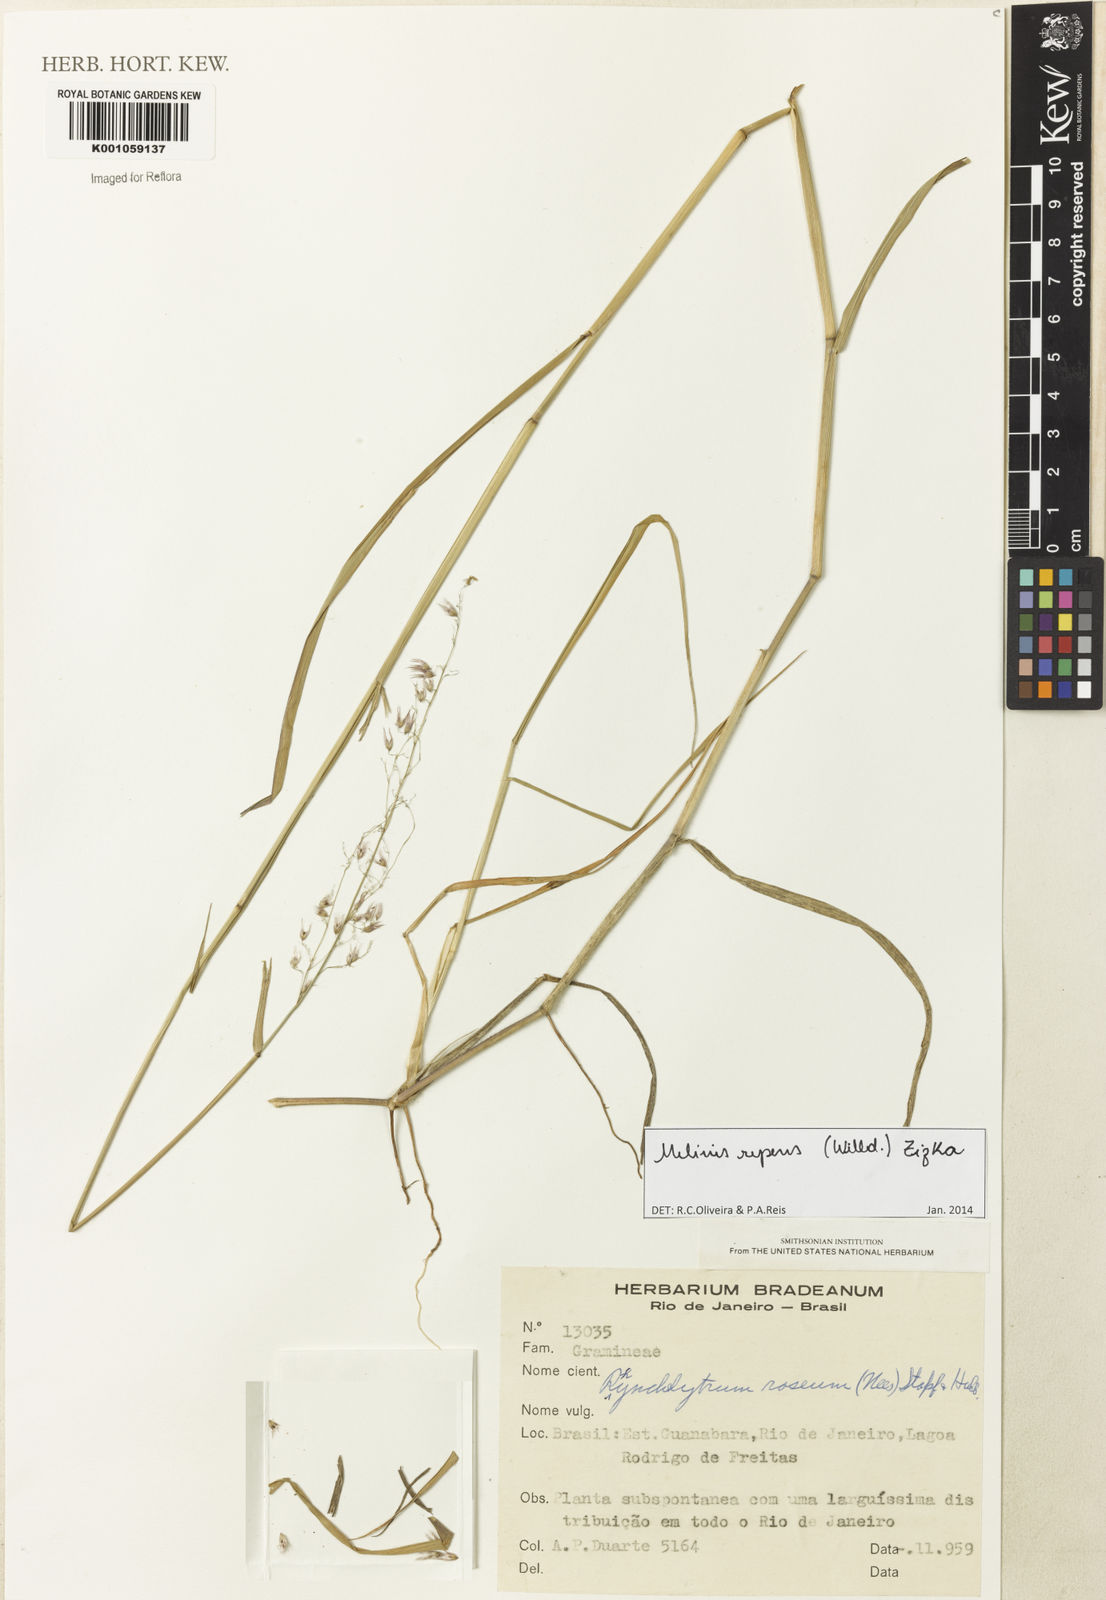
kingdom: Plantae
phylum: Tracheophyta
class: Liliopsida
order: Poales
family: Poaceae
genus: Melinis
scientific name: Melinis repens
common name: Rose natal grass
